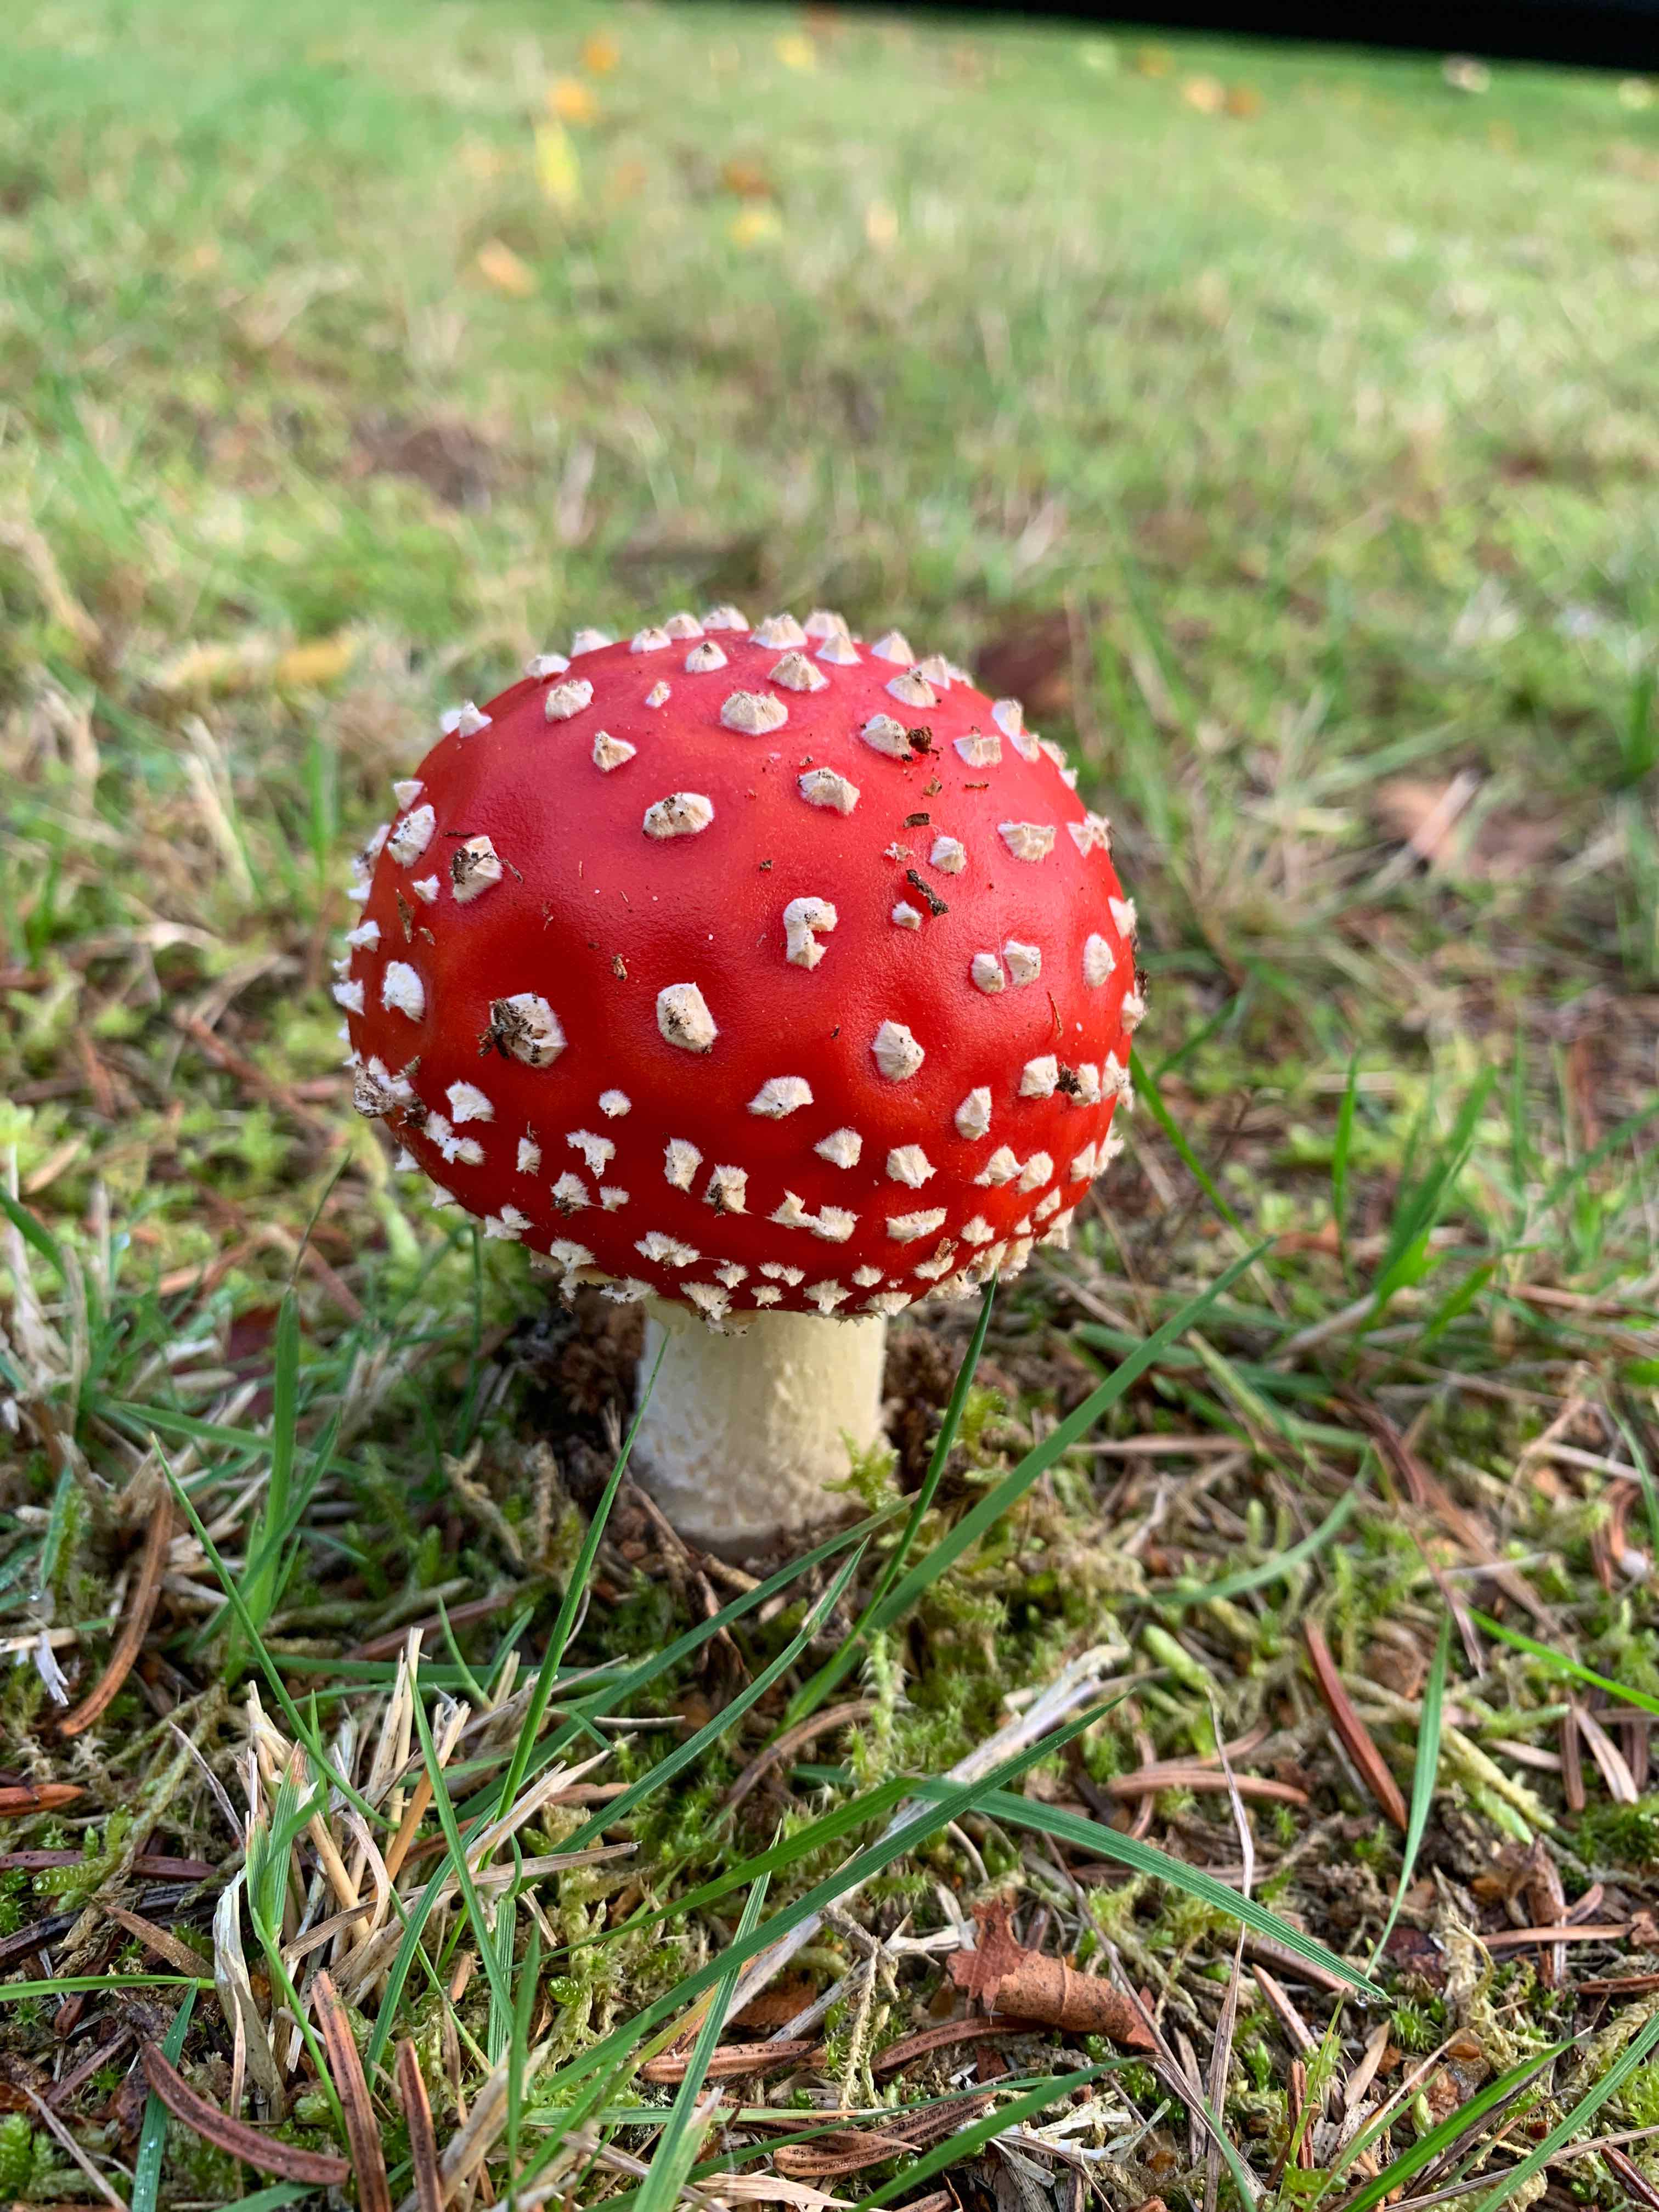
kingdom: Fungi
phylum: Basidiomycota
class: Agaricomycetes
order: Agaricales
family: Amanitaceae
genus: Amanita
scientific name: Amanita muscaria
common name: rød fluesvamp
